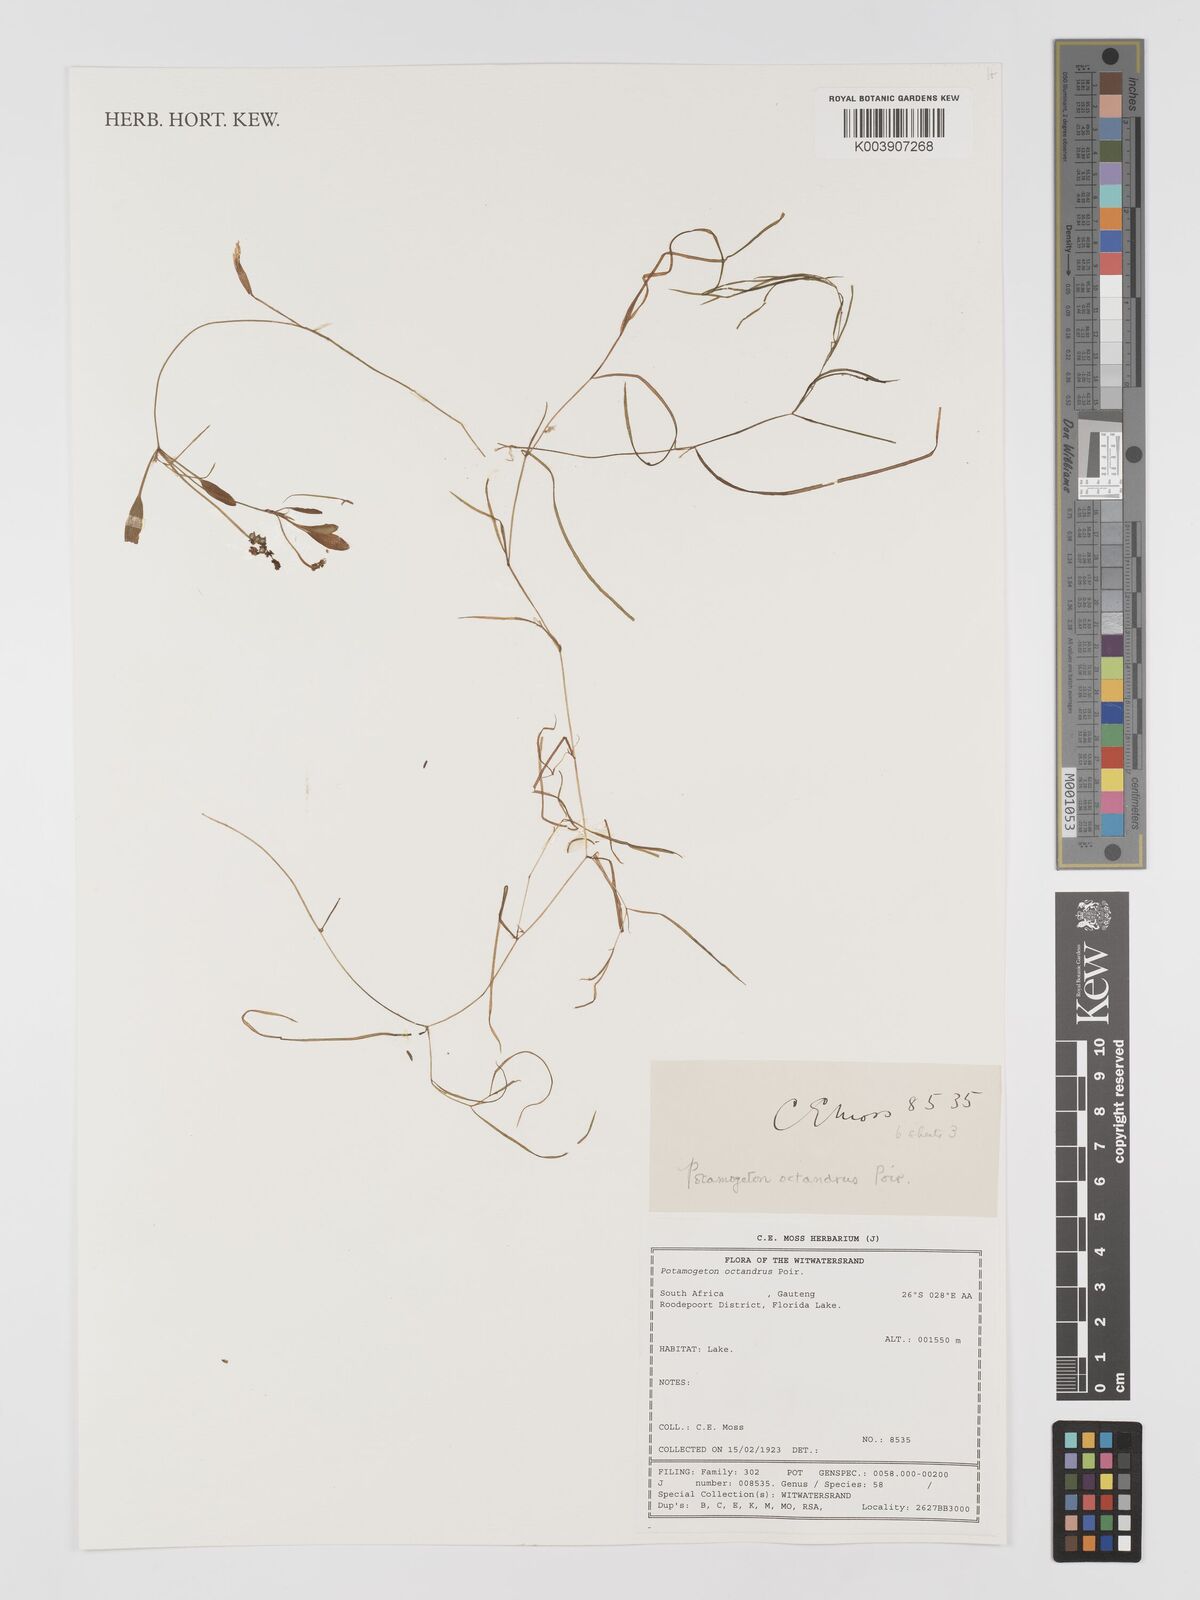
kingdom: Plantae
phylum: Tracheophyta
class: Liliopsida
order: Alismatales
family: Potamogetonaceae
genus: Potamogeton
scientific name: Potamogeton octandrus
